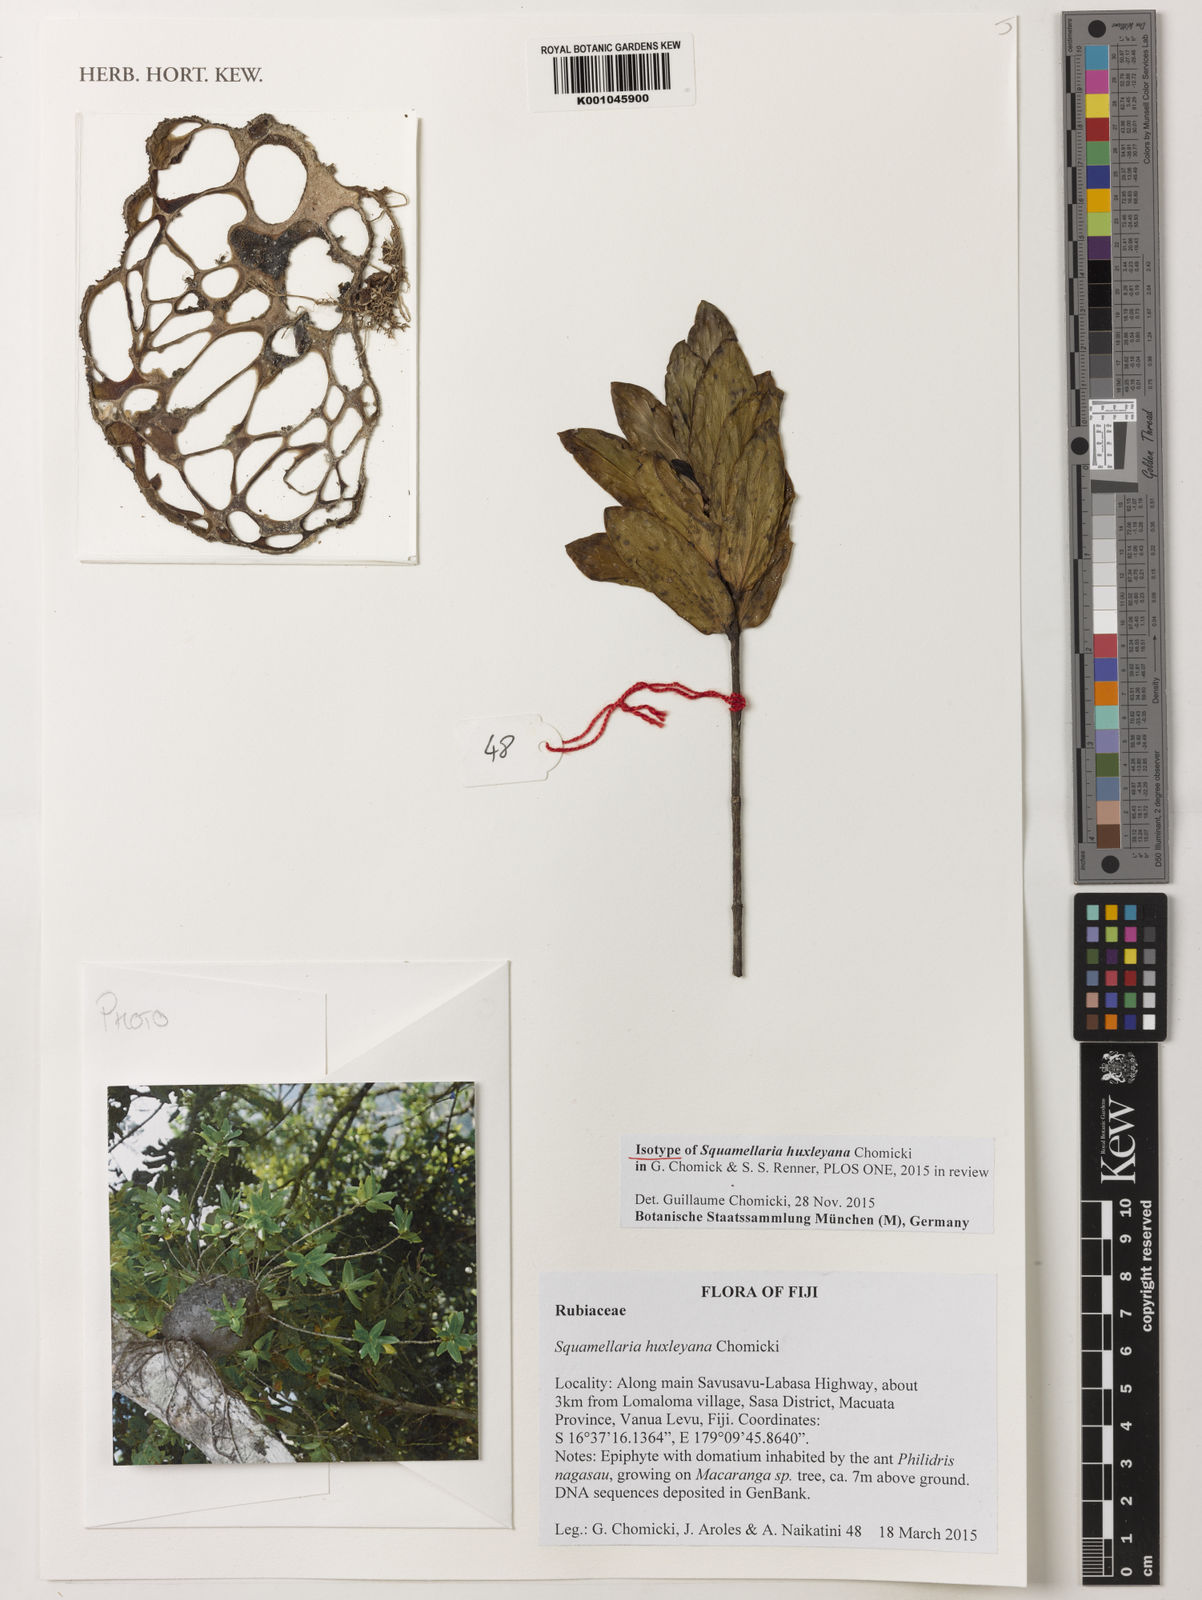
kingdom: Plantae
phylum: Tracheophyta
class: Magnoliopsida
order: Gentianales
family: Rubiaceae
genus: Squamellaria
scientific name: Squamellaria huxleyana
